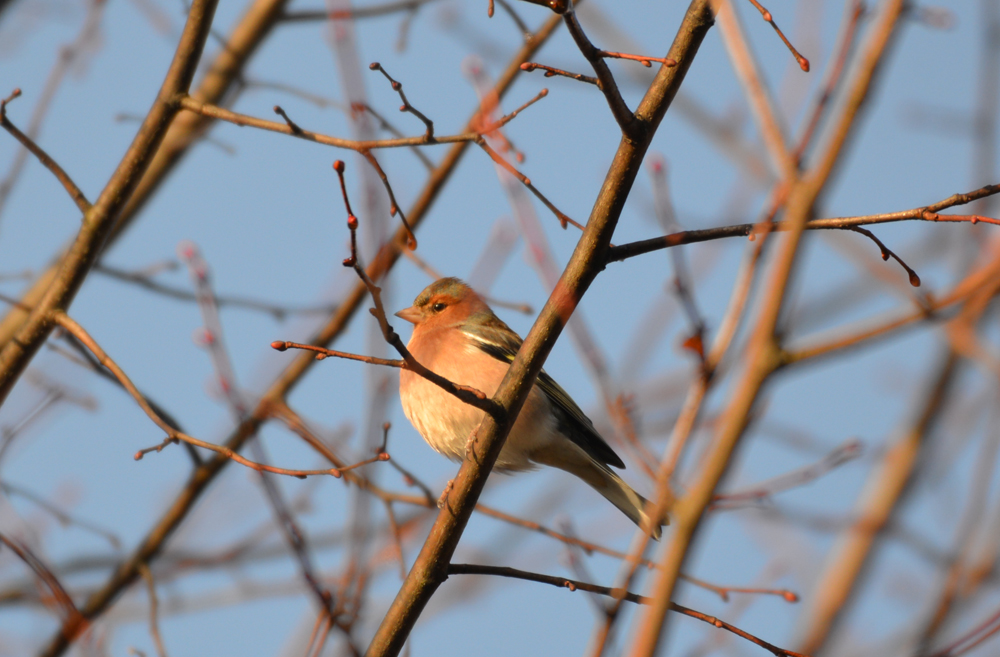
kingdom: Animalia
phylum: Chordata
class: Aves
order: Passeriformes
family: Fringillidae
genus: Fringilla
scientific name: Fringilla coelebs
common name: Common chaffinch
